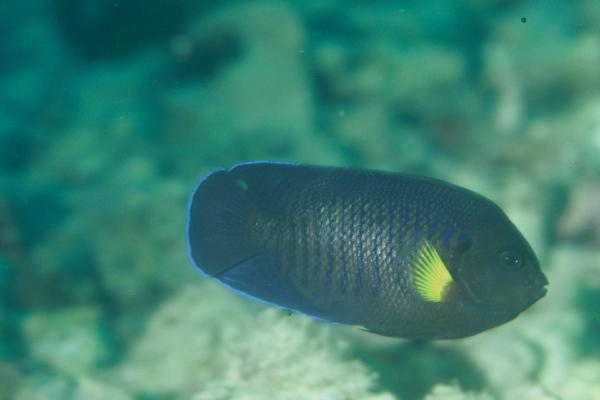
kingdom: Animalia
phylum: Chordata
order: Perciformes
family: Pomacanthidae
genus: Centropyge
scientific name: Centropyge flavipectoralis
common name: Yellowfin angelfish
